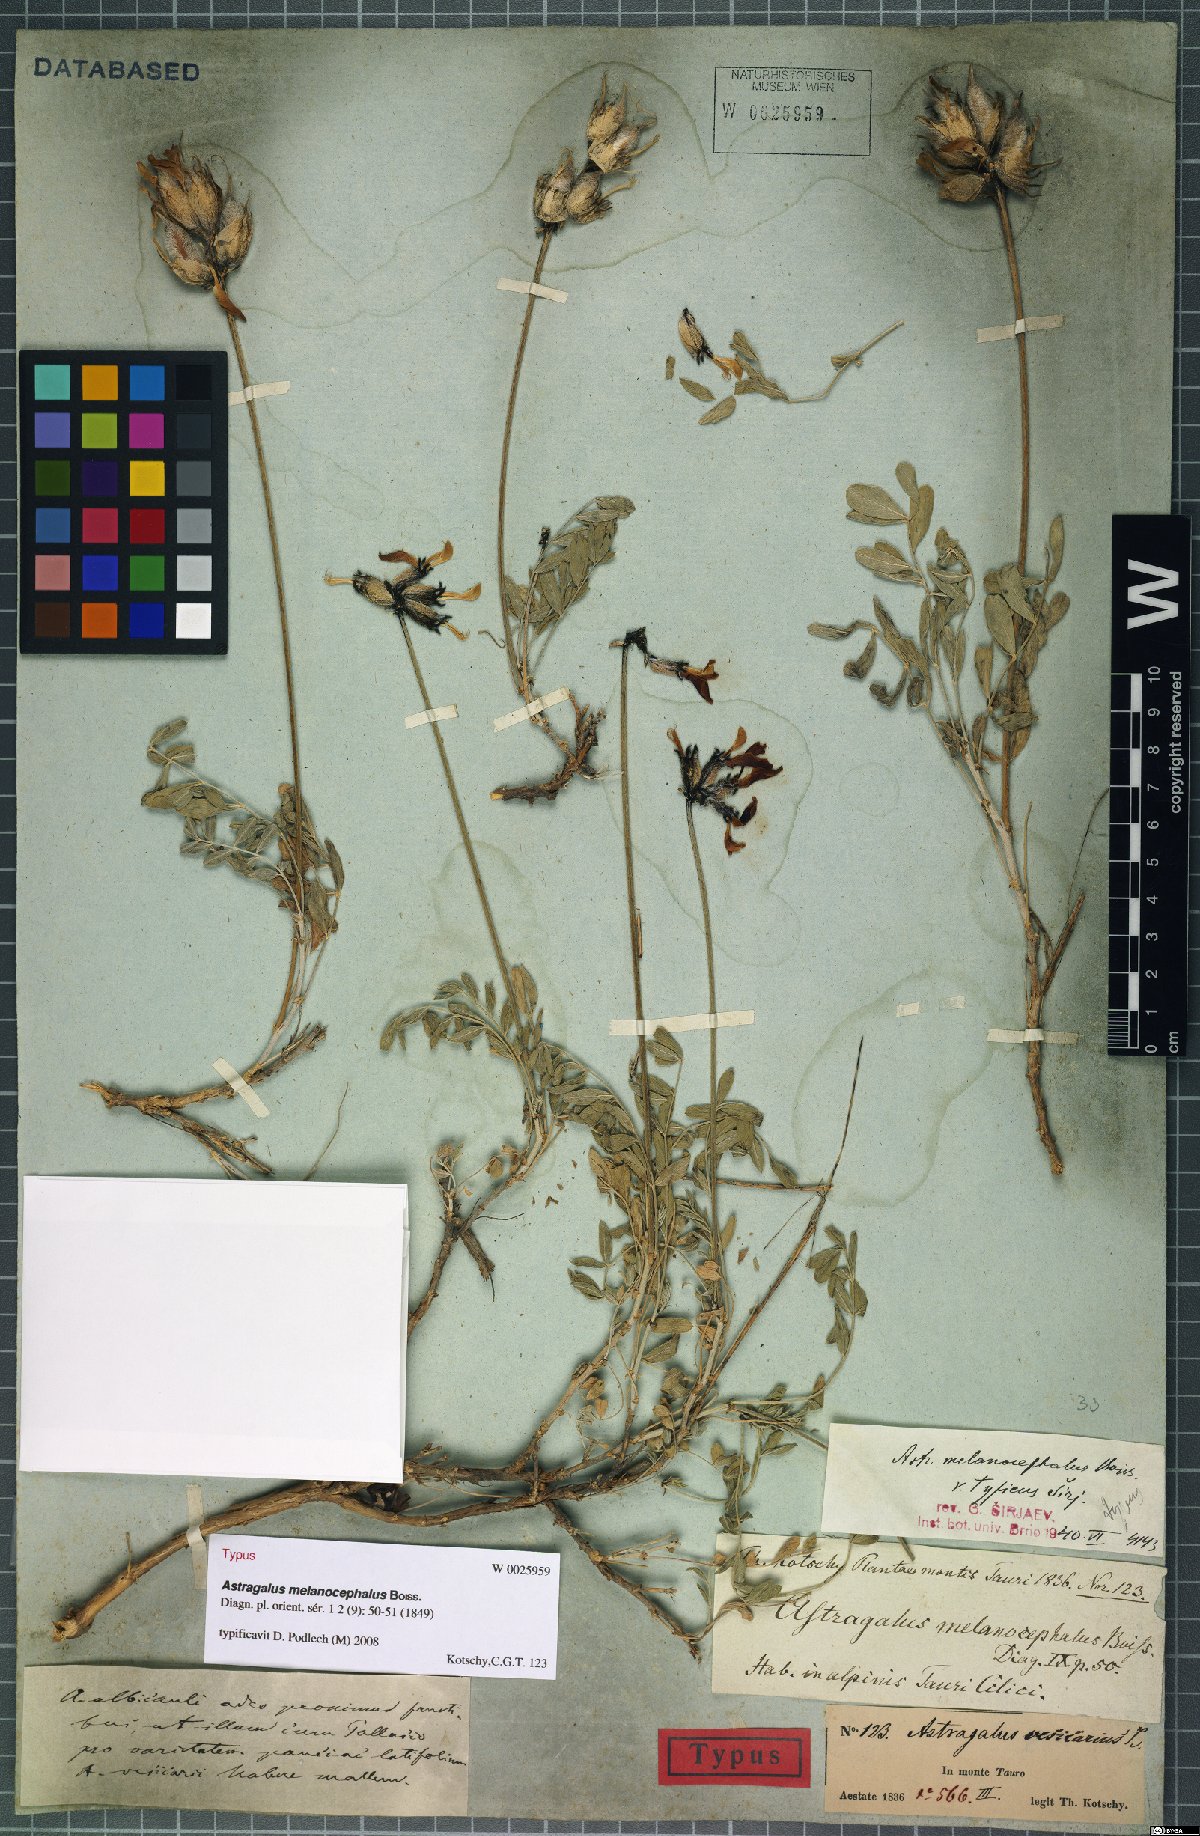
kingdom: Plantae
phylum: Tracheophyta
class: Magnoliopsida
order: Fabales
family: Fabaceae
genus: Astragalus
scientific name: Astragalus melanocephalus
